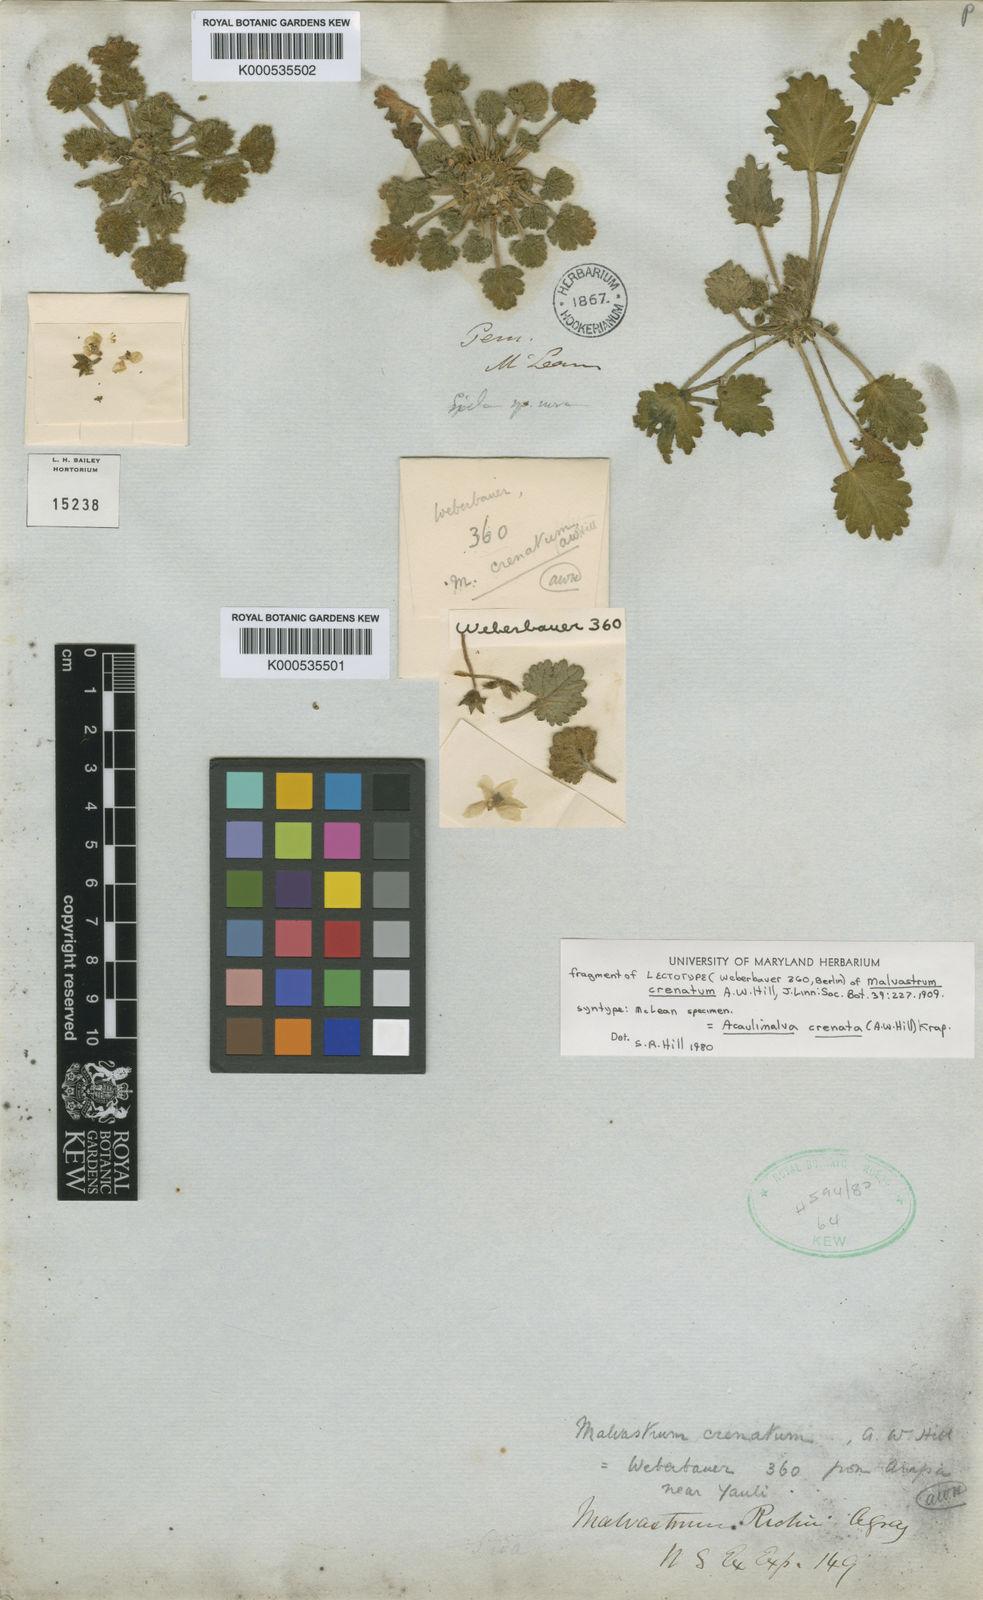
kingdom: Plantae
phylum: Tracheophyta
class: Magnoliopsida
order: Malvales
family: Malvaceae
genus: Acaulimalva
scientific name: Acaulimalva crenata
